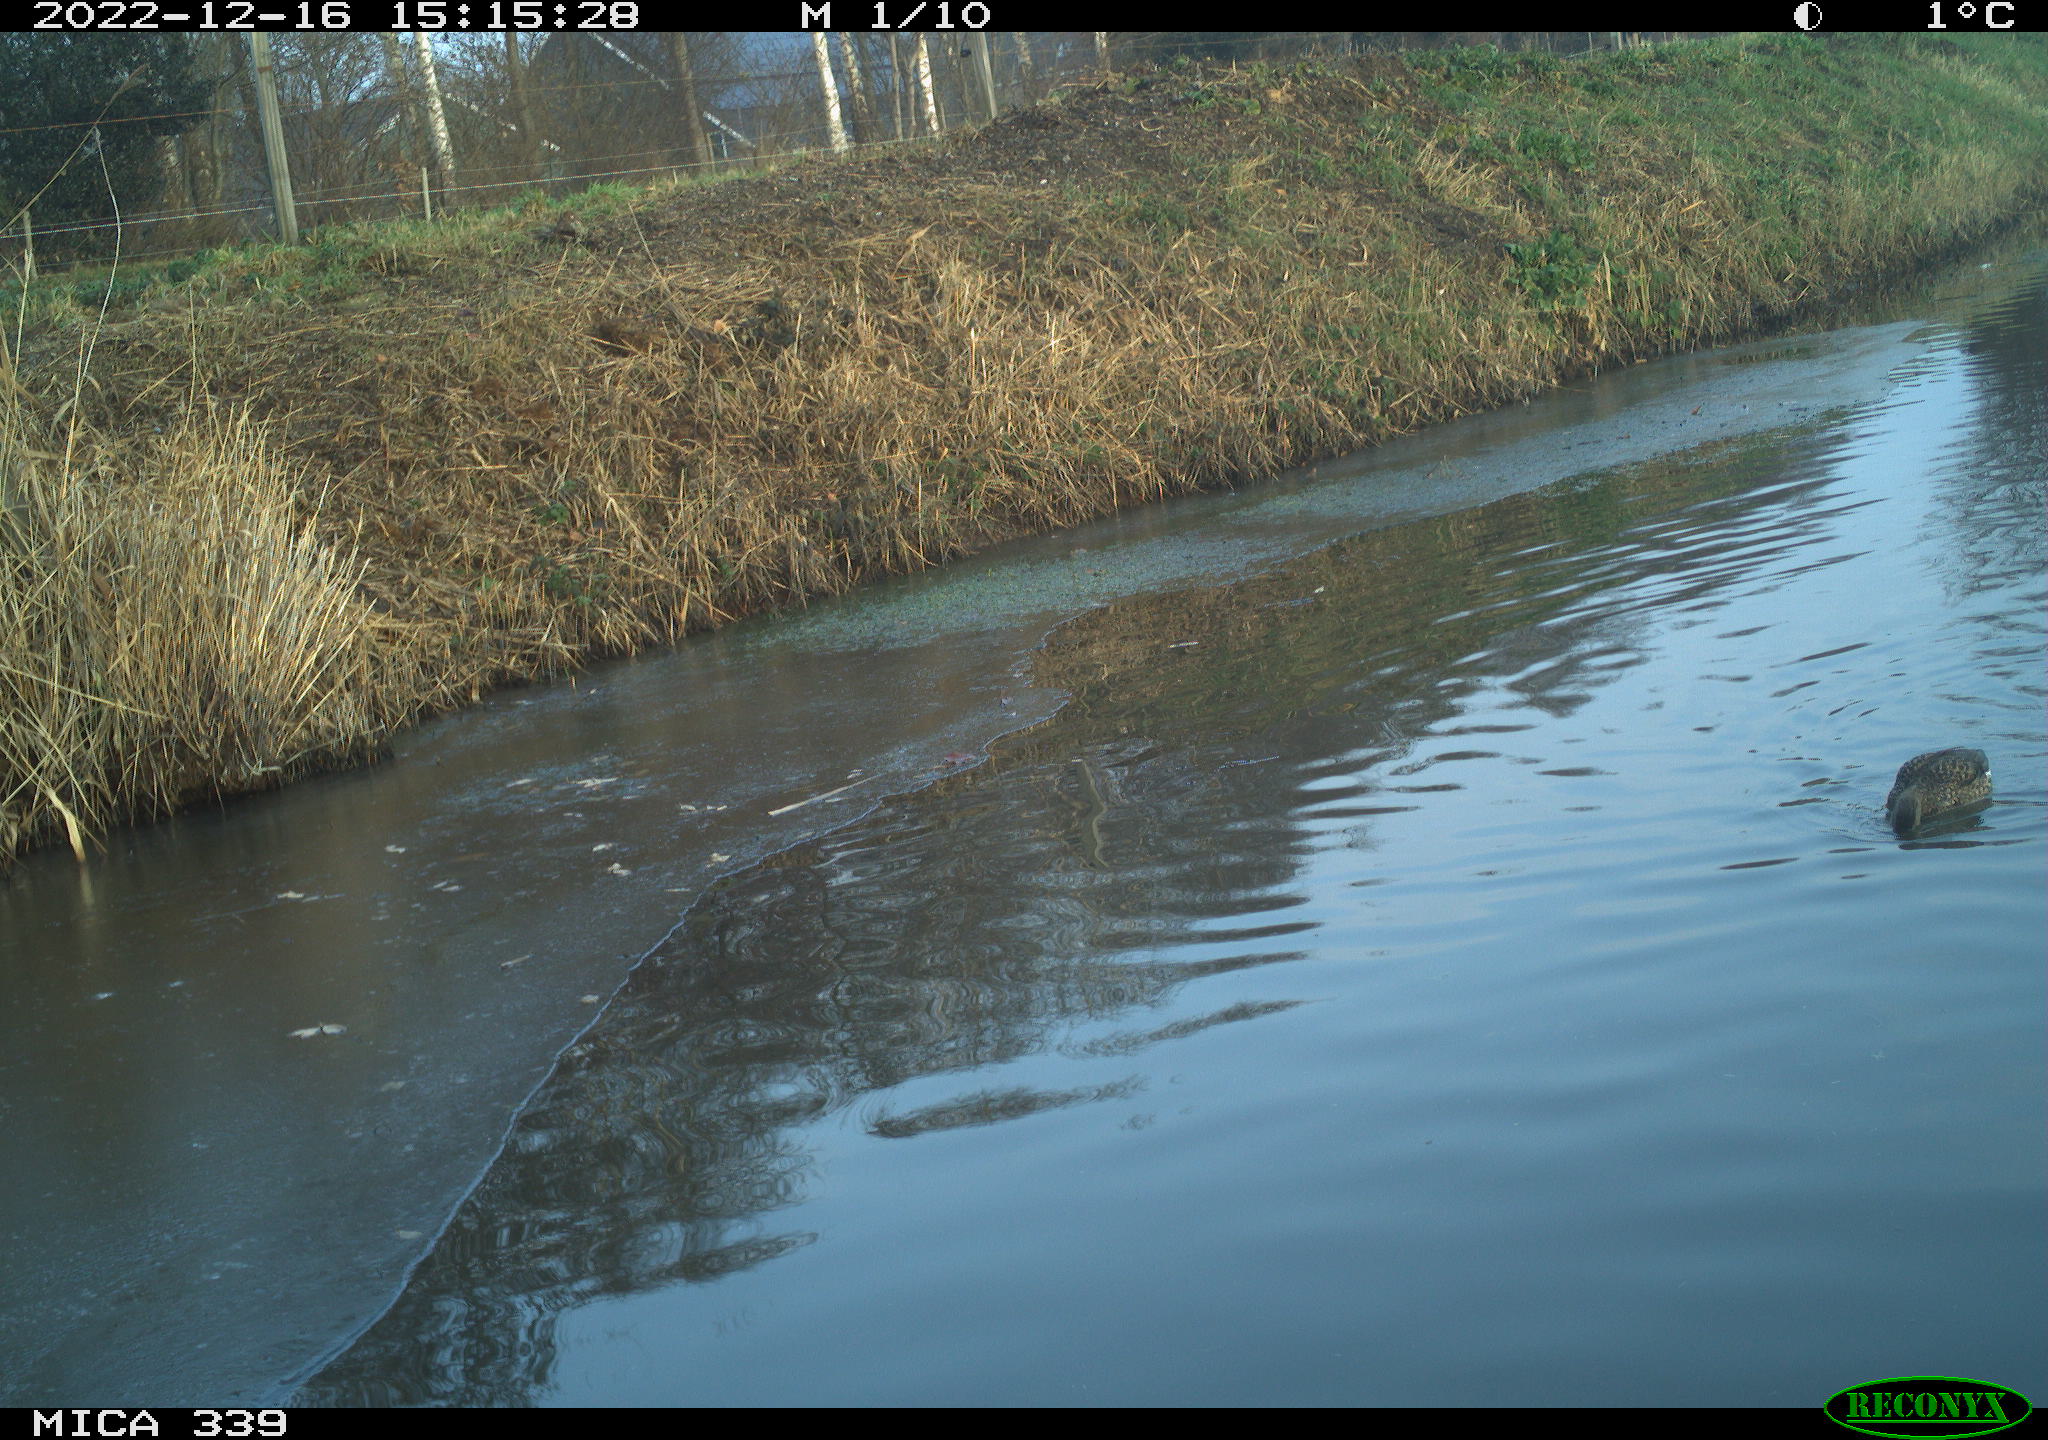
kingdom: Animalia
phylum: Chordata
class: Aves
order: Anseriformes
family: Anatidae
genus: Anas
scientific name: Anas
